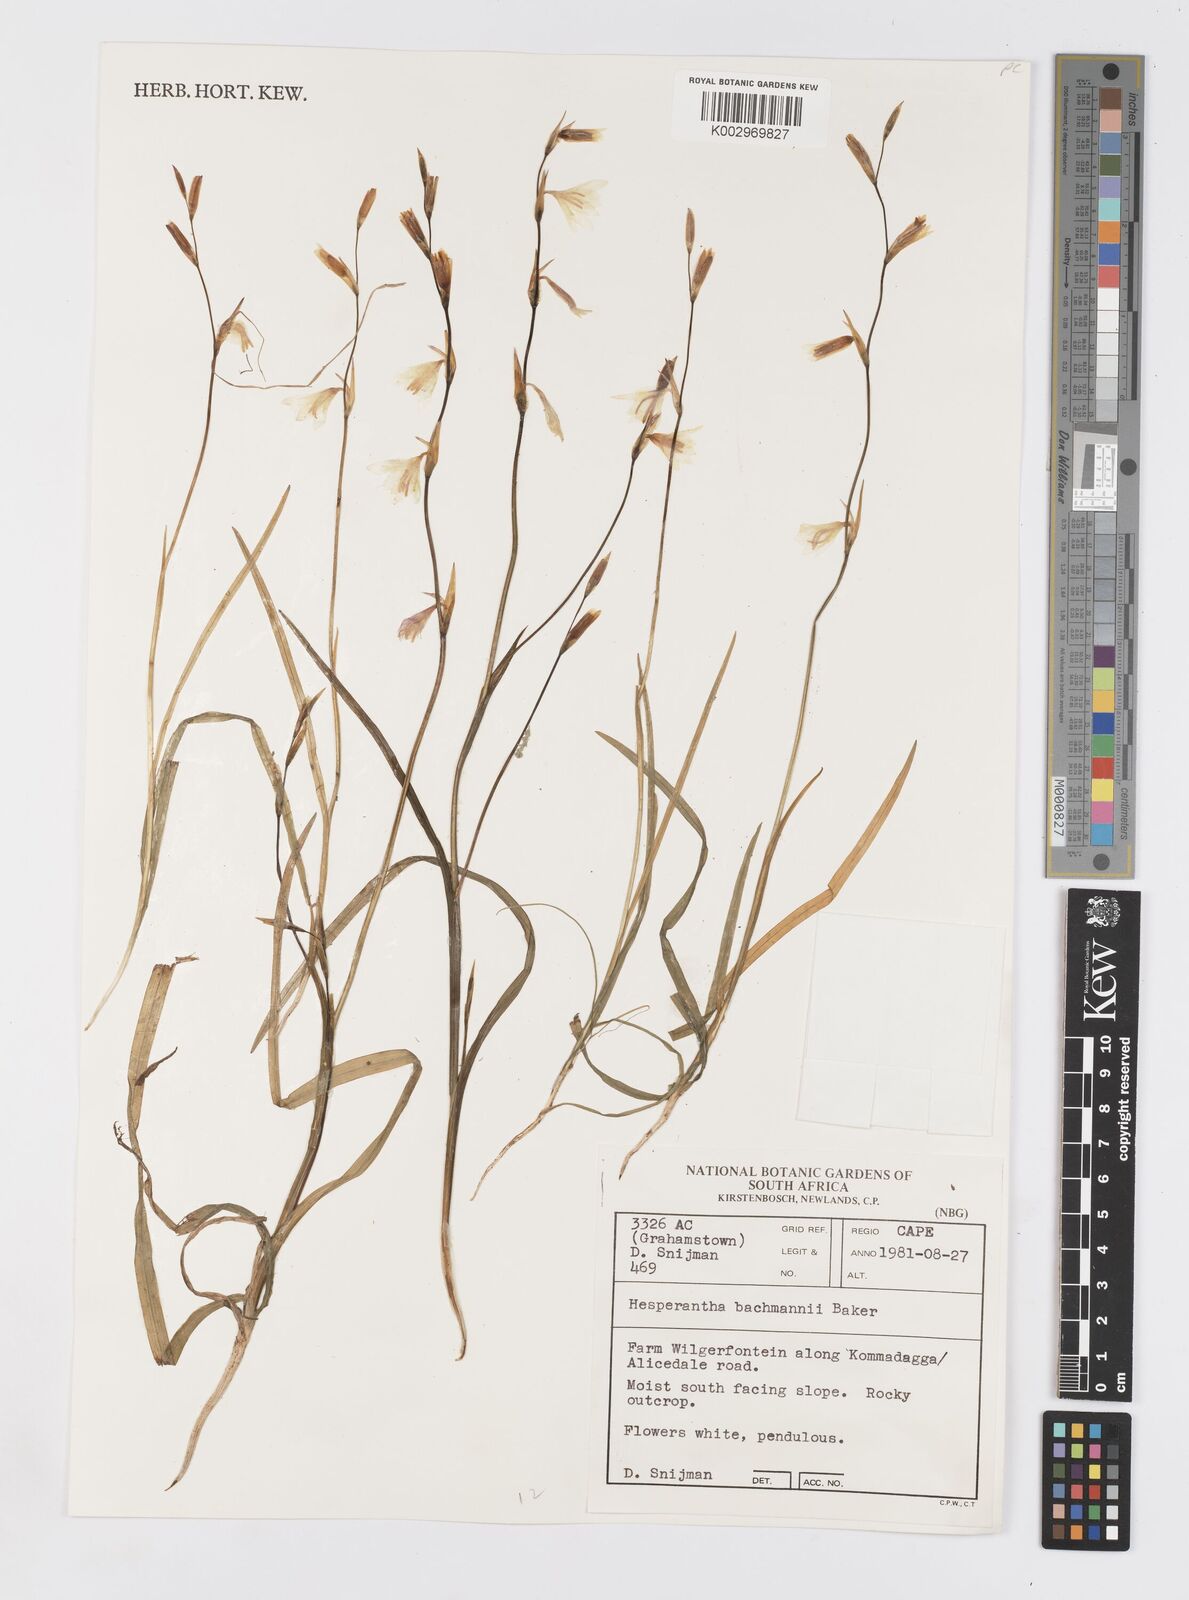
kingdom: Plantae
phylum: Tracheophyta
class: Liliopsida
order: Asparagales
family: Iridaceae
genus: Hesperantha
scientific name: Hesperantha bachmannii
